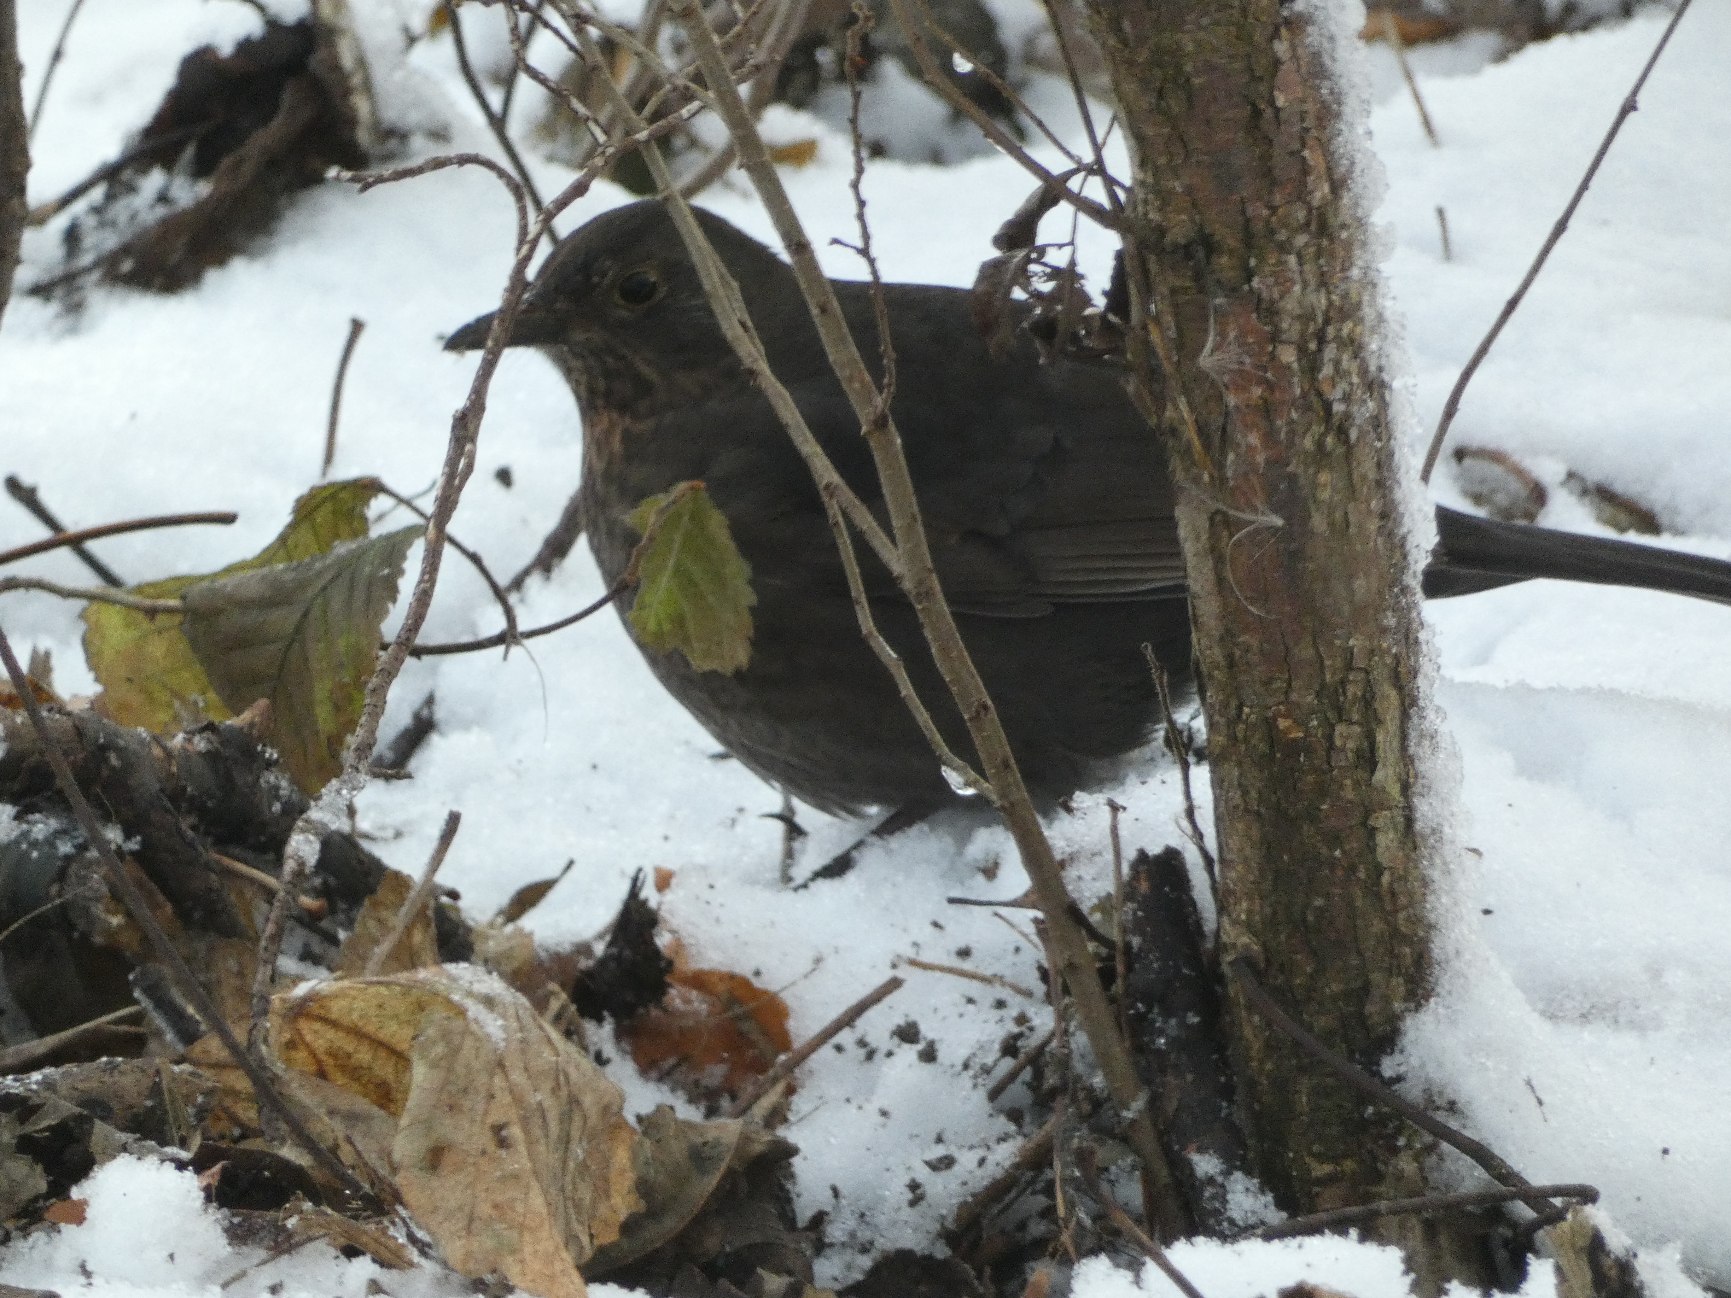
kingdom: Animalia
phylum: Chordata
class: Aves
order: Passeriformes
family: Turdidae
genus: Turdus
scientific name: Turdus merula
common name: Solsort
